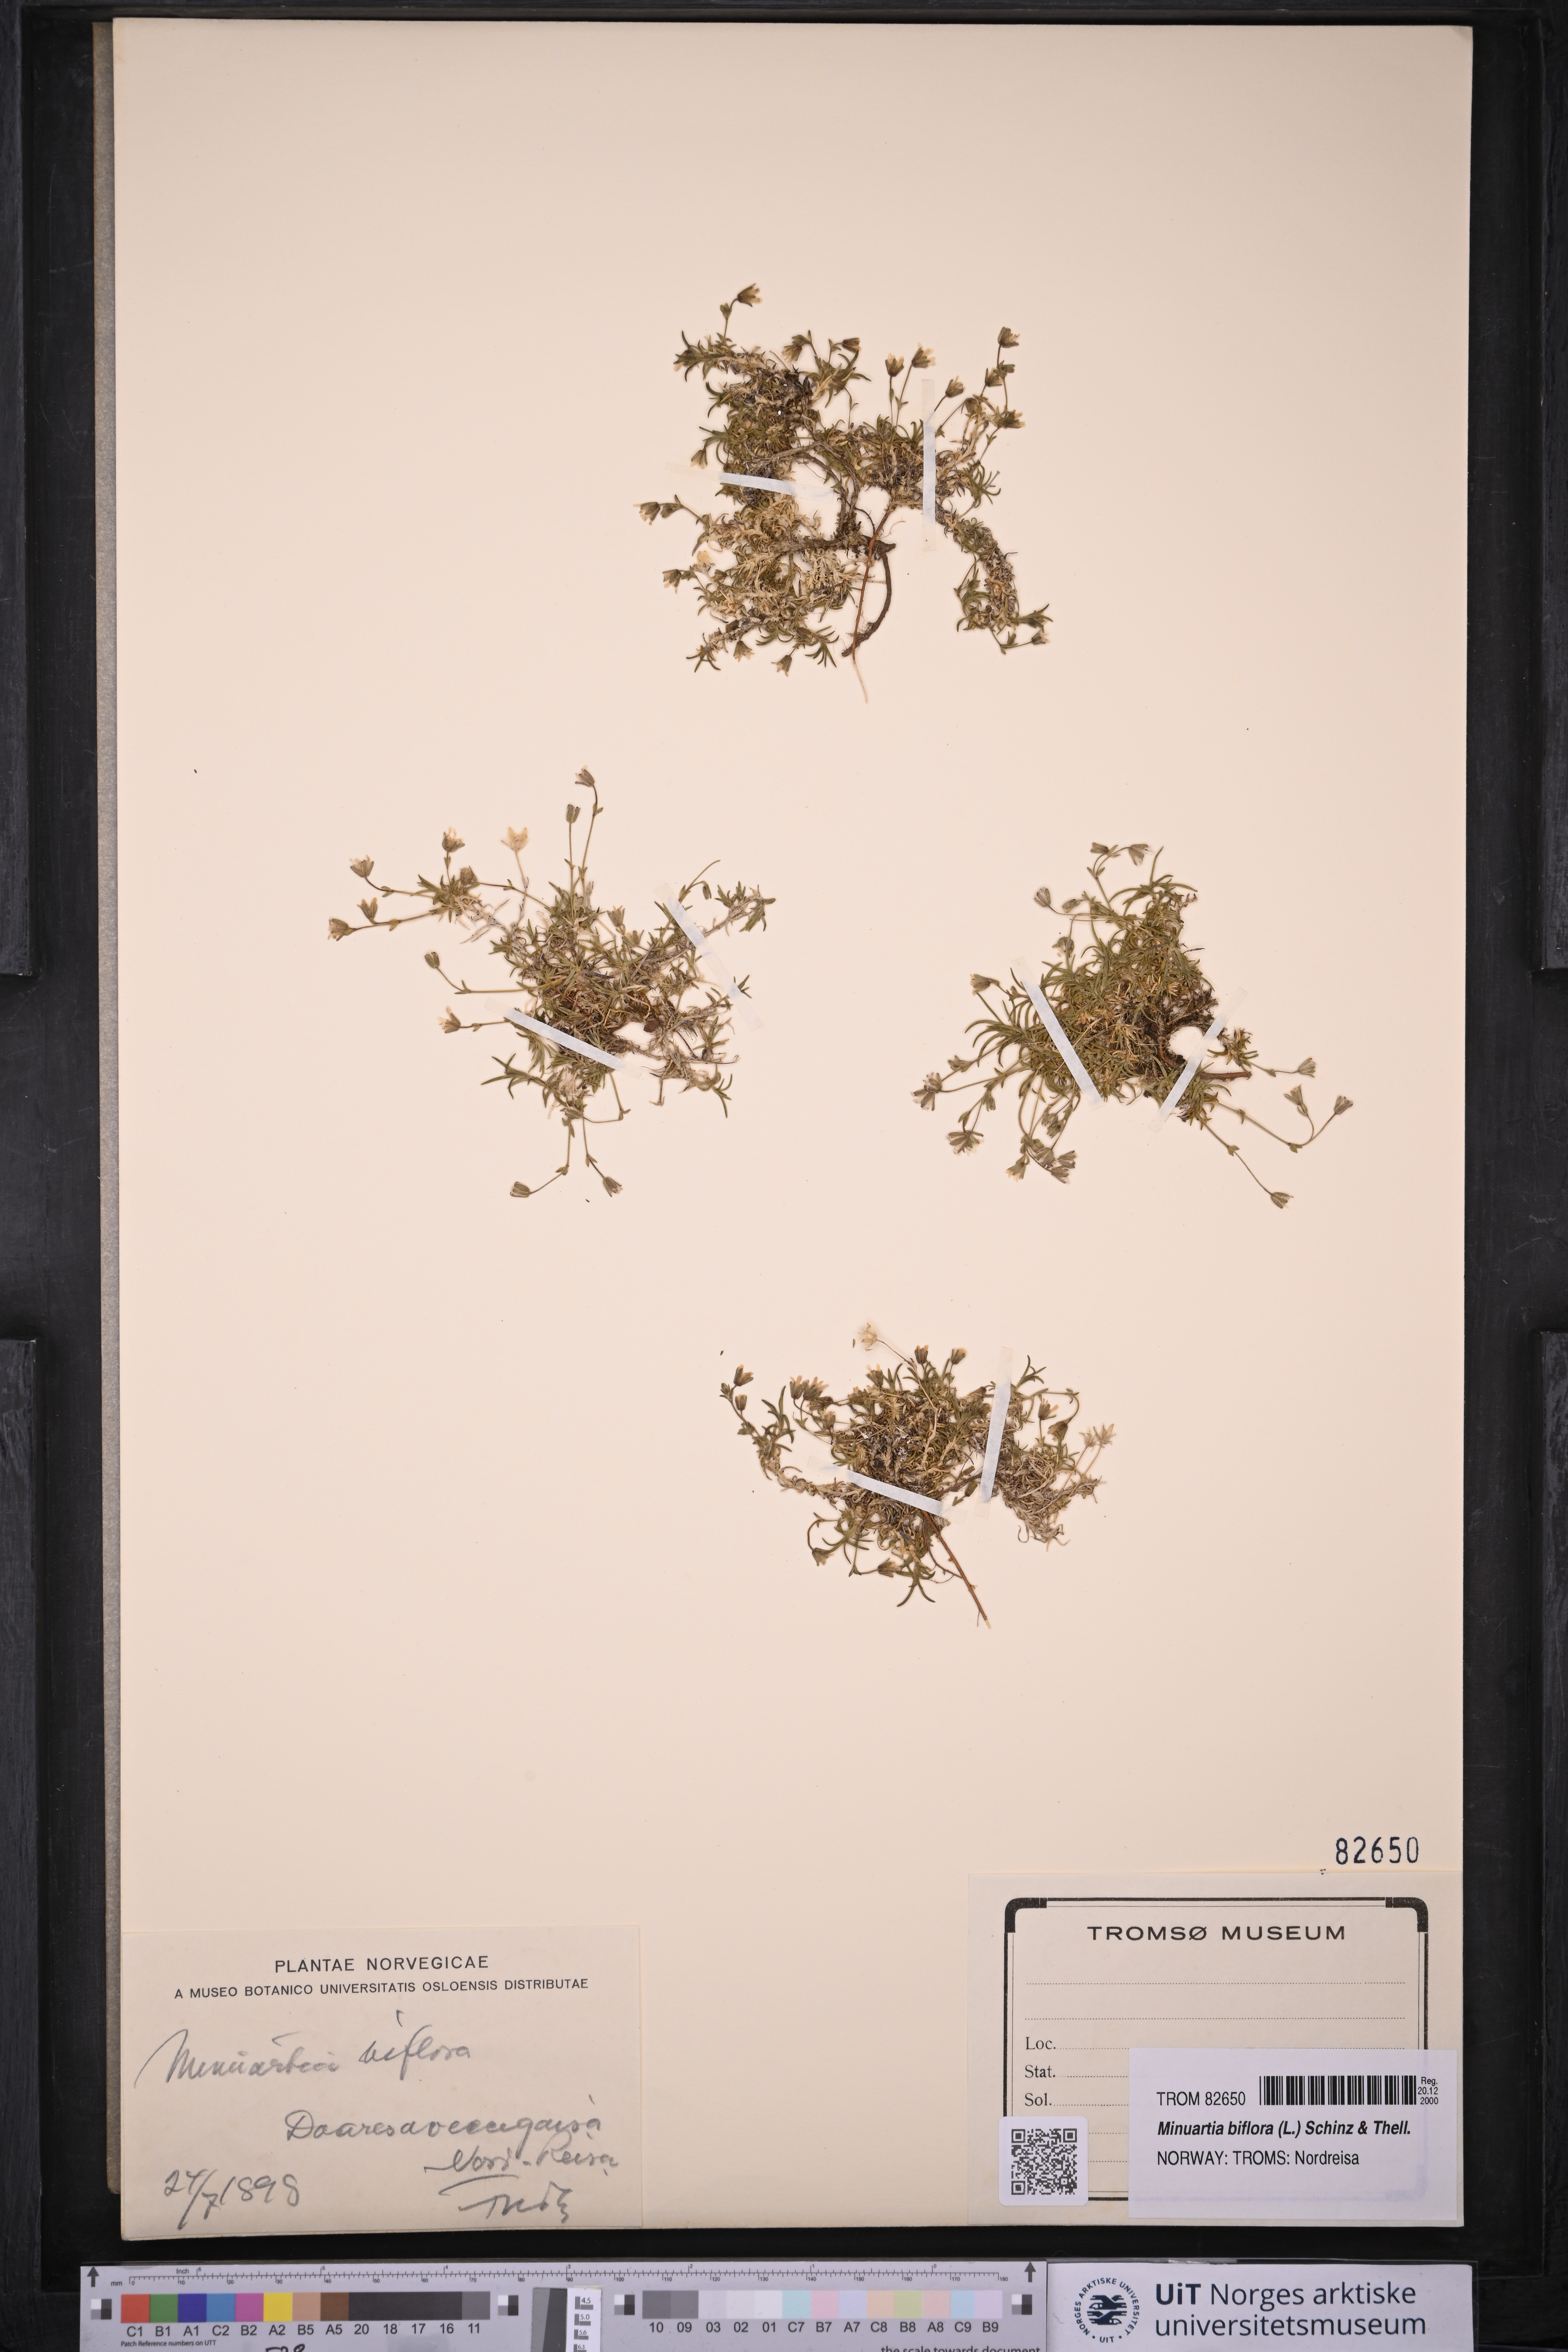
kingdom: Plantae
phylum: Tracheophyta
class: Magnoliopsida
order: Caryophyllales
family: Caryophyllaceae
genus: Cherleria
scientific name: Cherleria biflora
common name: Mountain sandwort
